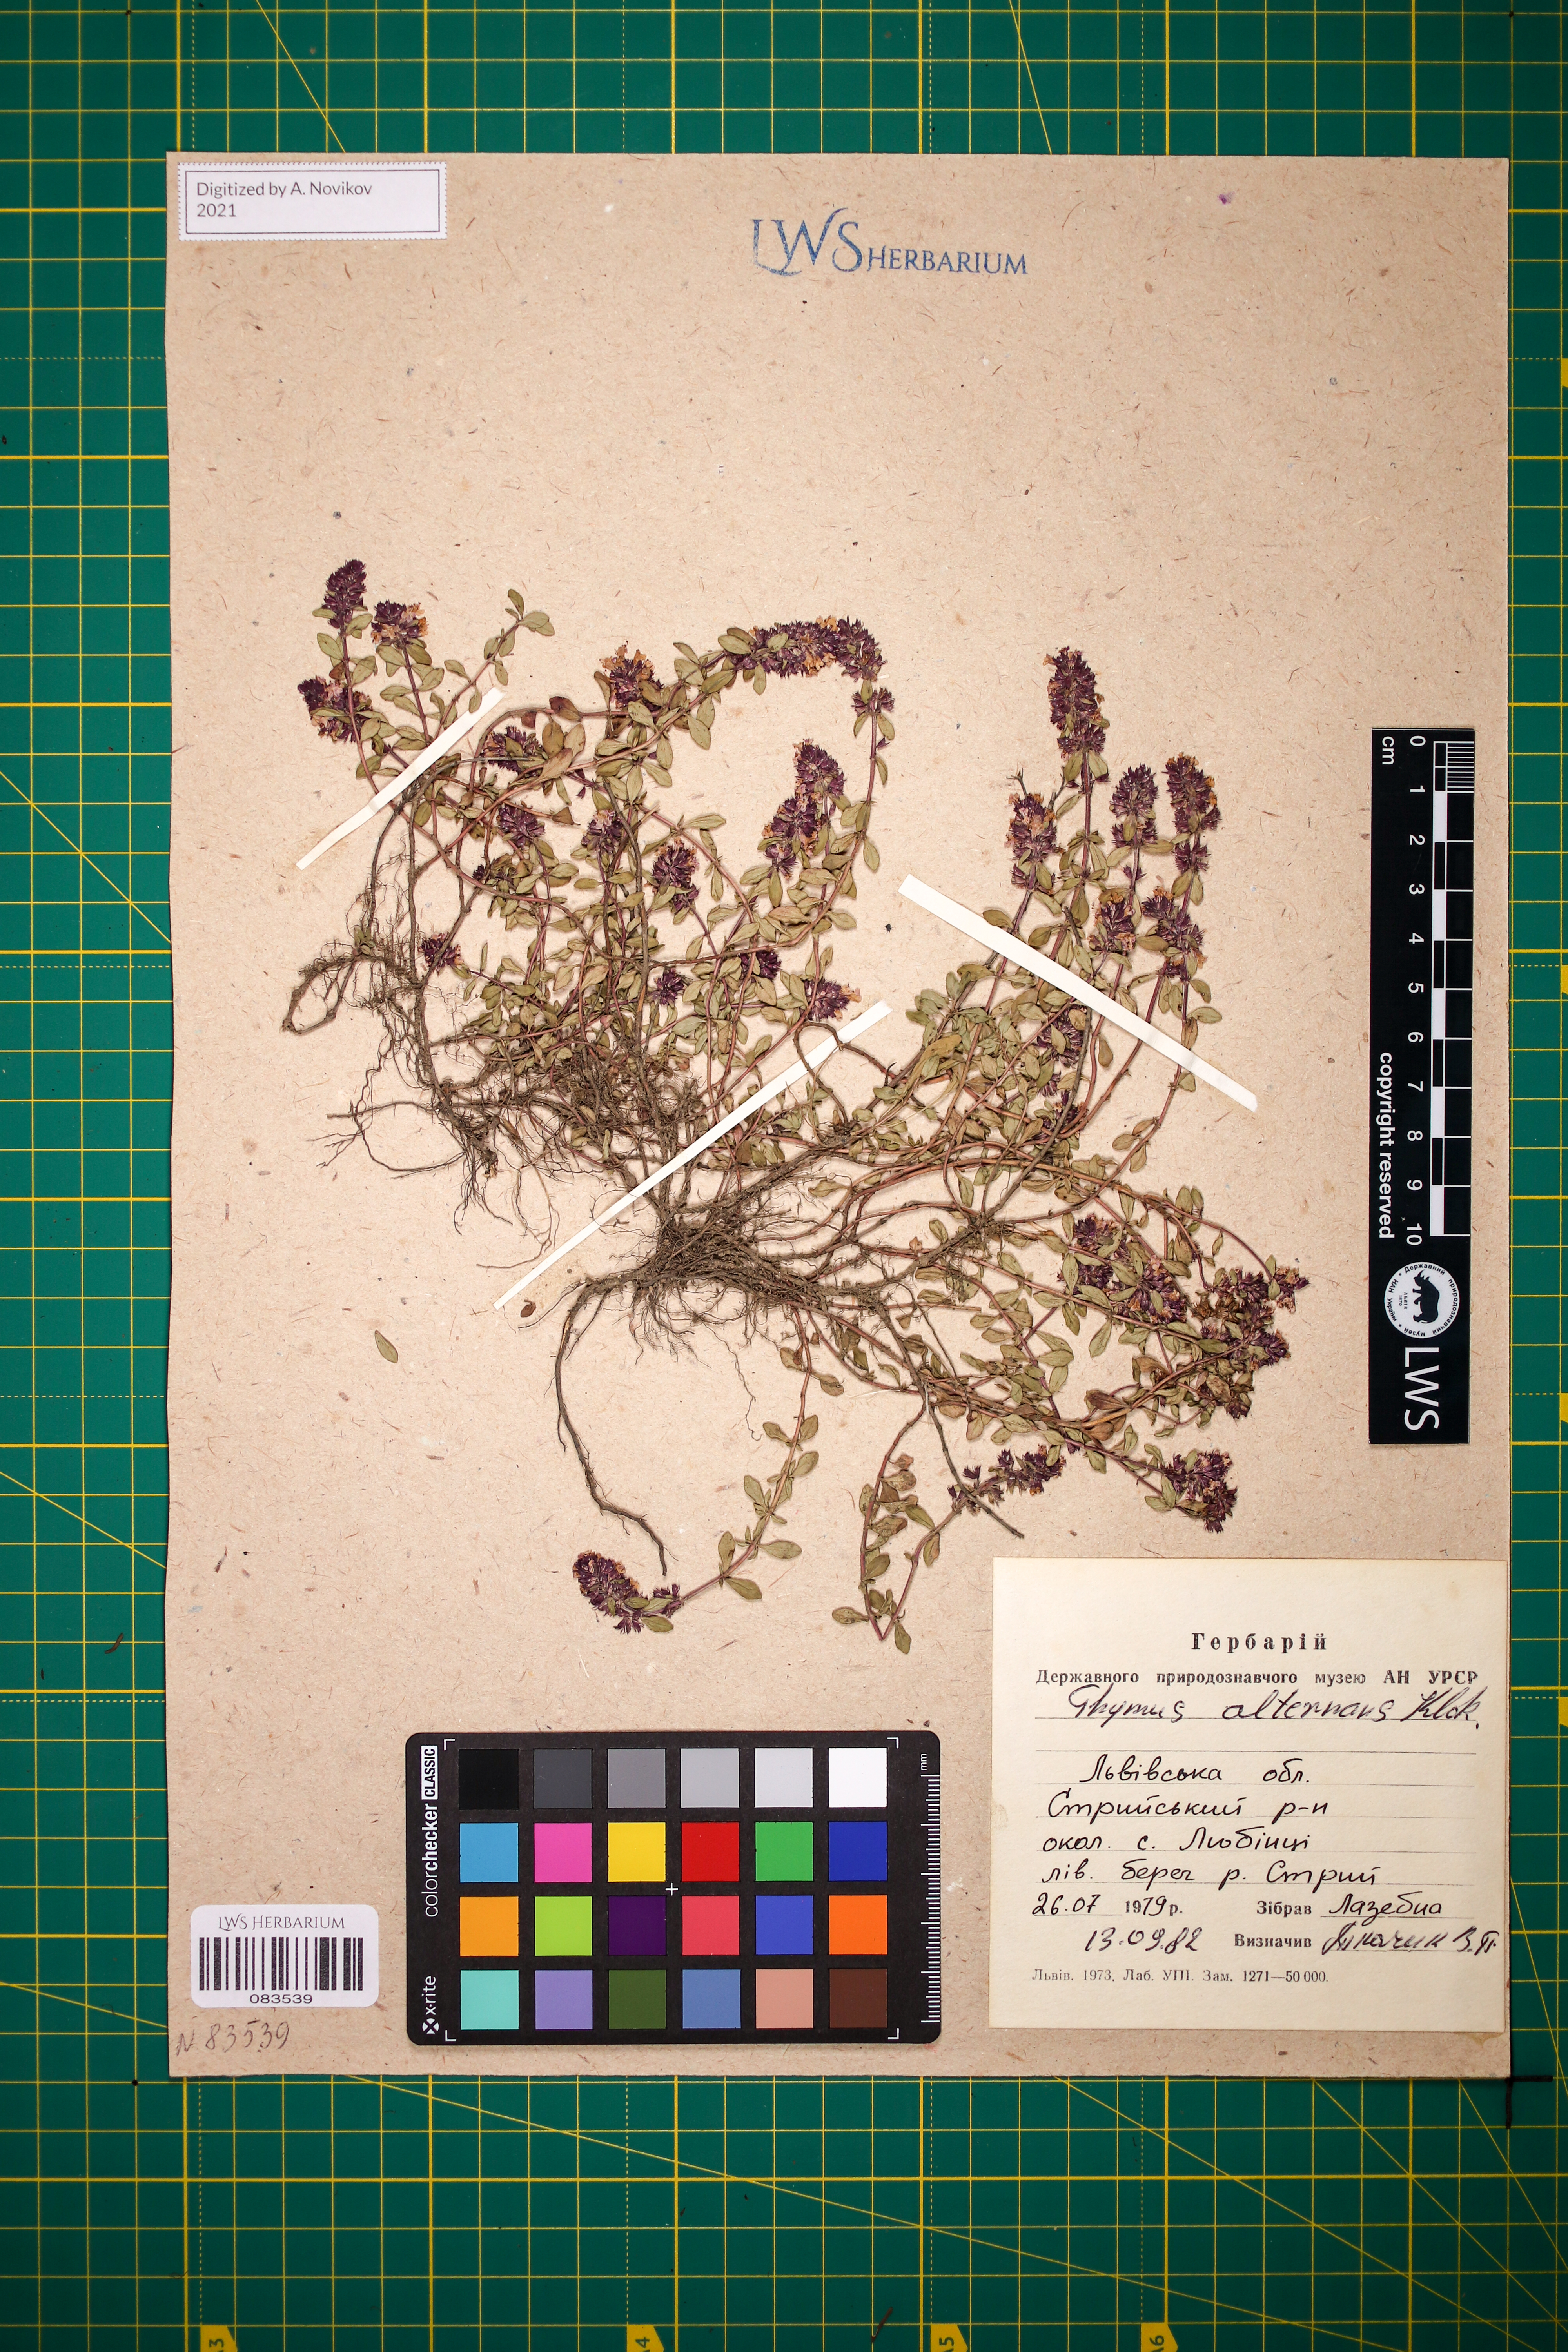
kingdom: Plantae
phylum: Tracheophyta
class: Magnoliopsida
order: Lamiales
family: Lamiaceae
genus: Thymus
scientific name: Thymus alternans
